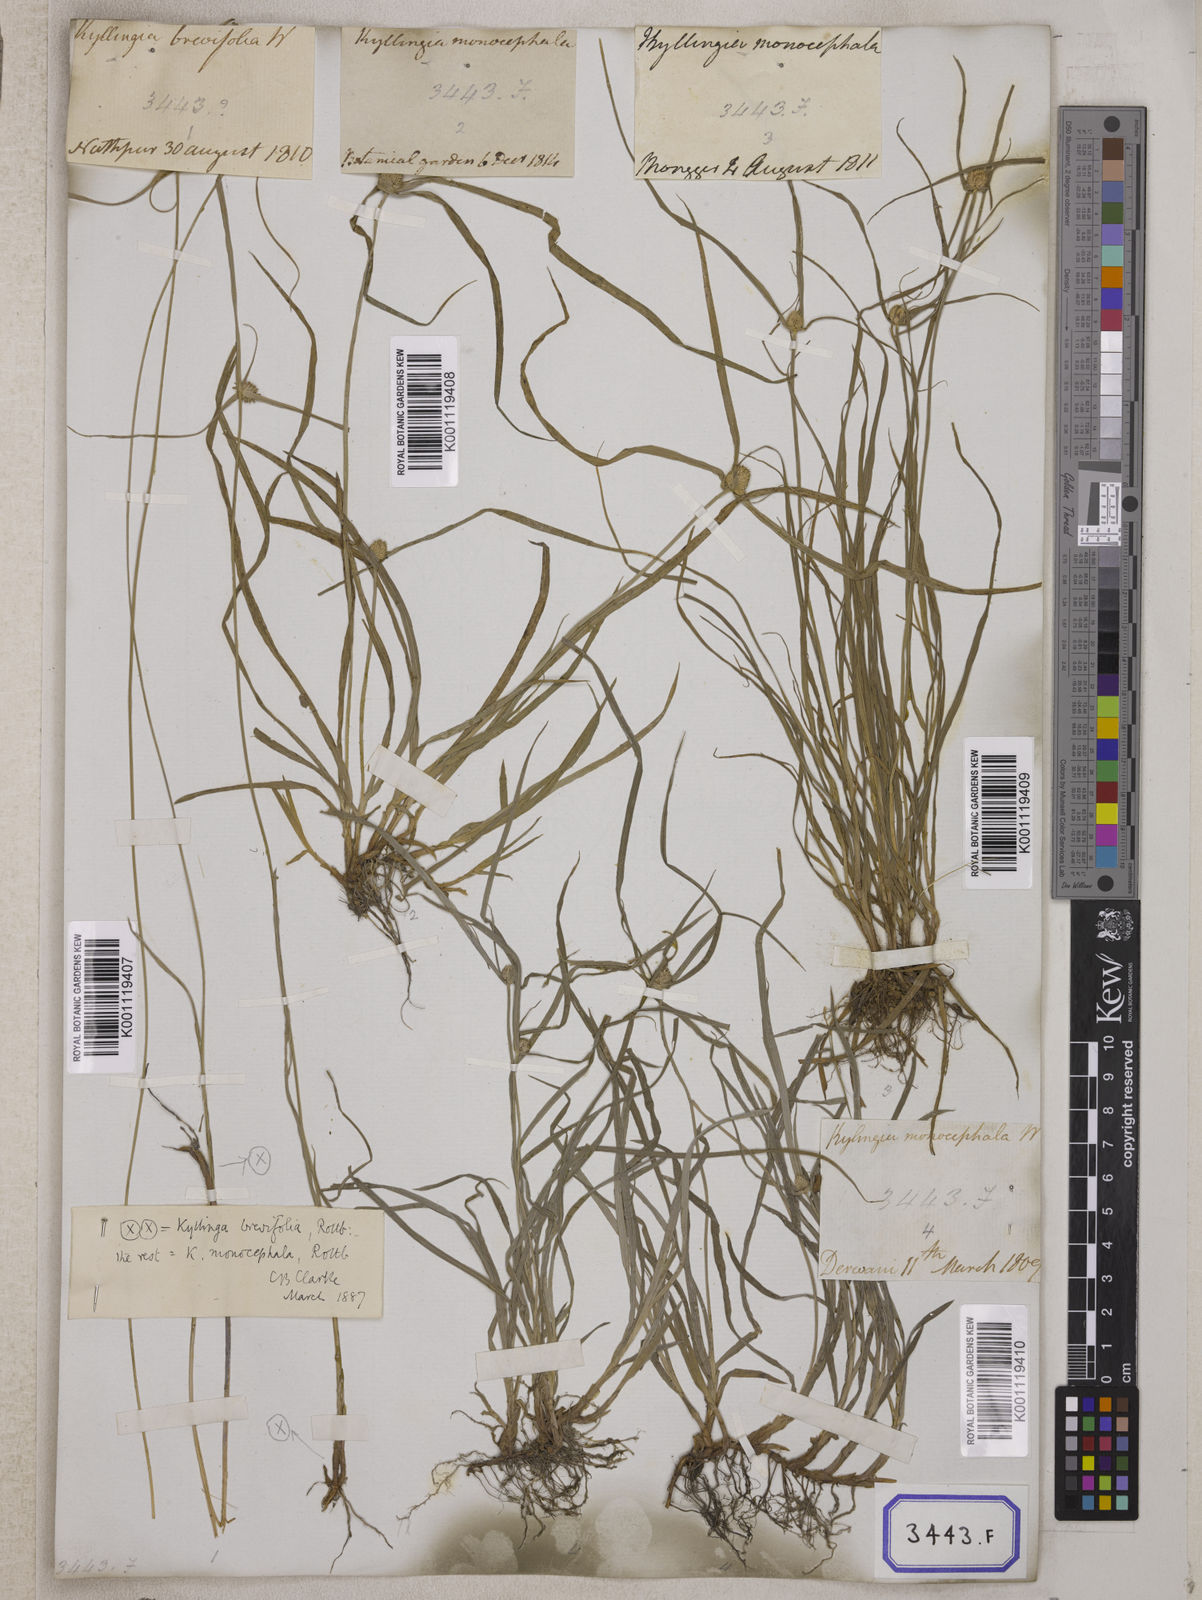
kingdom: Plantae
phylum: Tracheophyta
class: Liliopsida
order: Poales
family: Cyperaceae
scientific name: Cyperaceae
